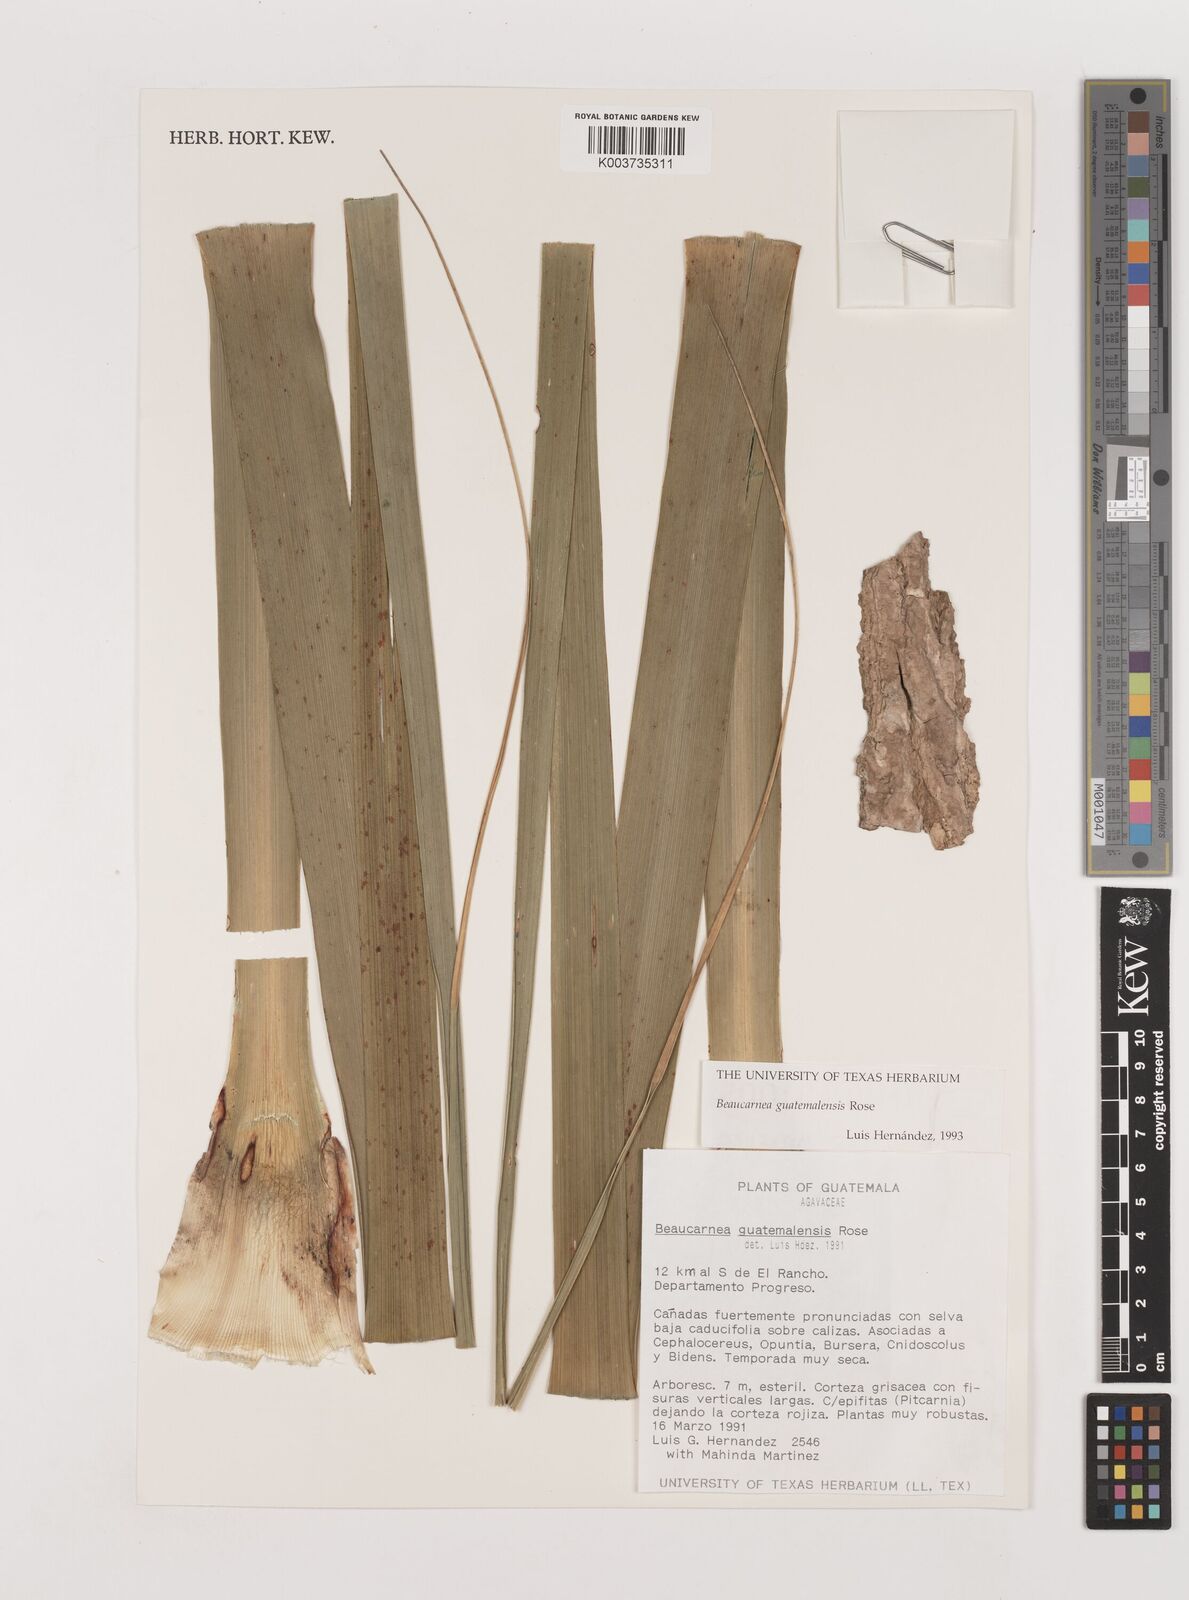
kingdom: Plantae
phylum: Tracheophyta
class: Liliopsida
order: Asparagales
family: Asparagaceae
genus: Beaucarnea
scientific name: Beaucarnea guatemalensis
